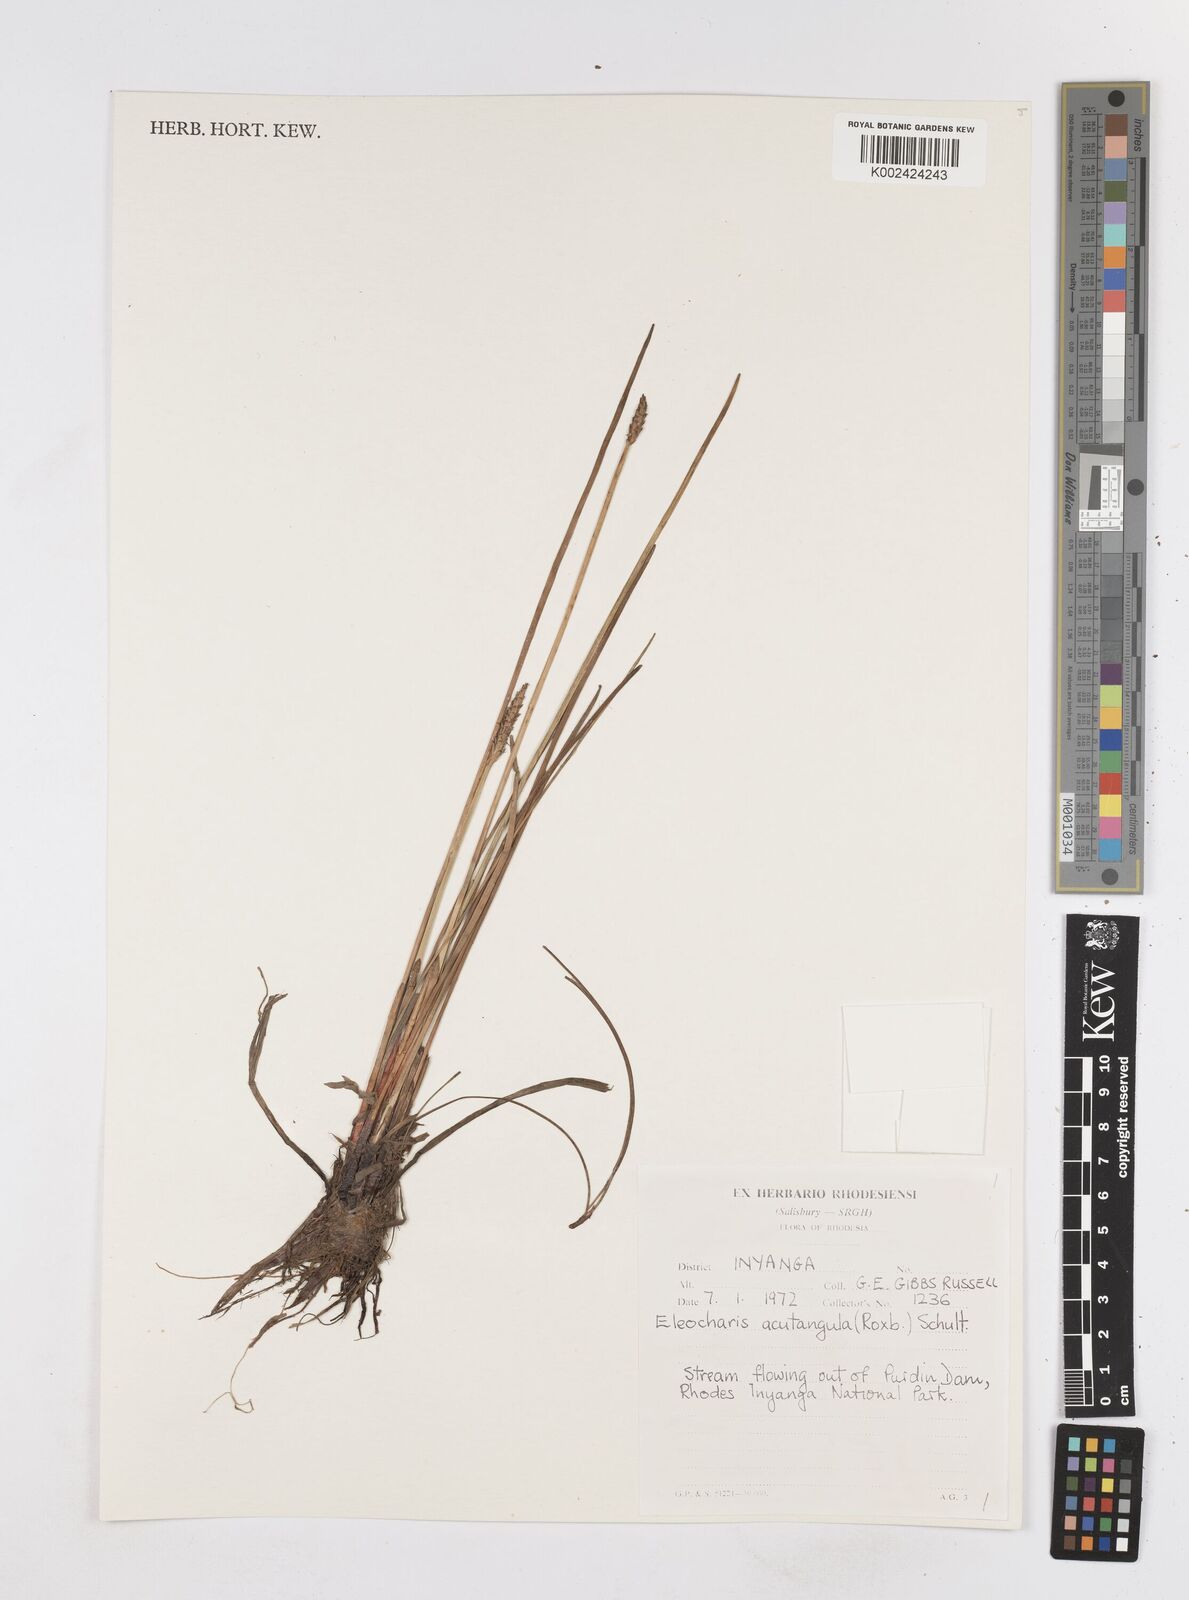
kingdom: Plantae
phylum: Tracheophyta
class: Liliopsida
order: Poales
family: Cyperaceae
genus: Eleocharis
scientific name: Eleocharis acutangula
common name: Acute spikerush
